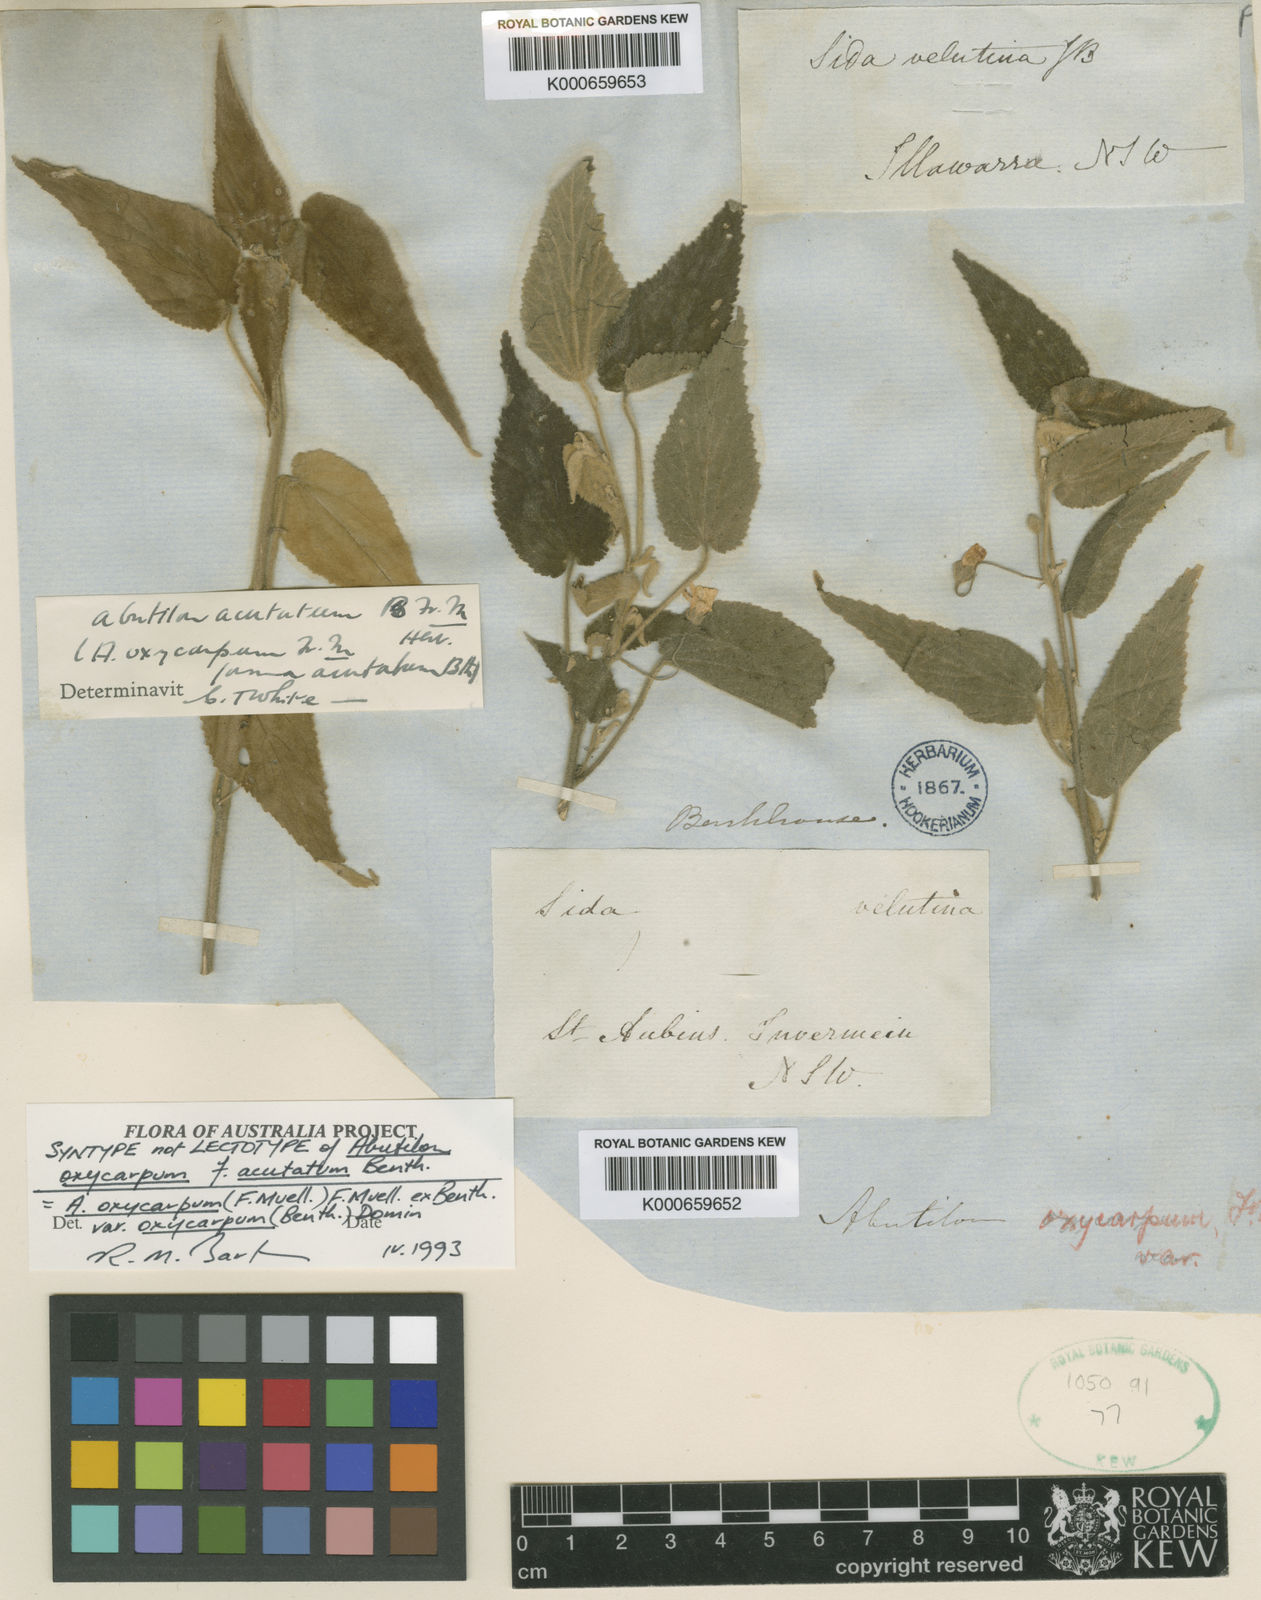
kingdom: Plantae
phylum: Tracheophyta
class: Magnoliopsida
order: Malvales
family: Malvaceae
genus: Abutilon
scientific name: Abutilon oxycarpum
